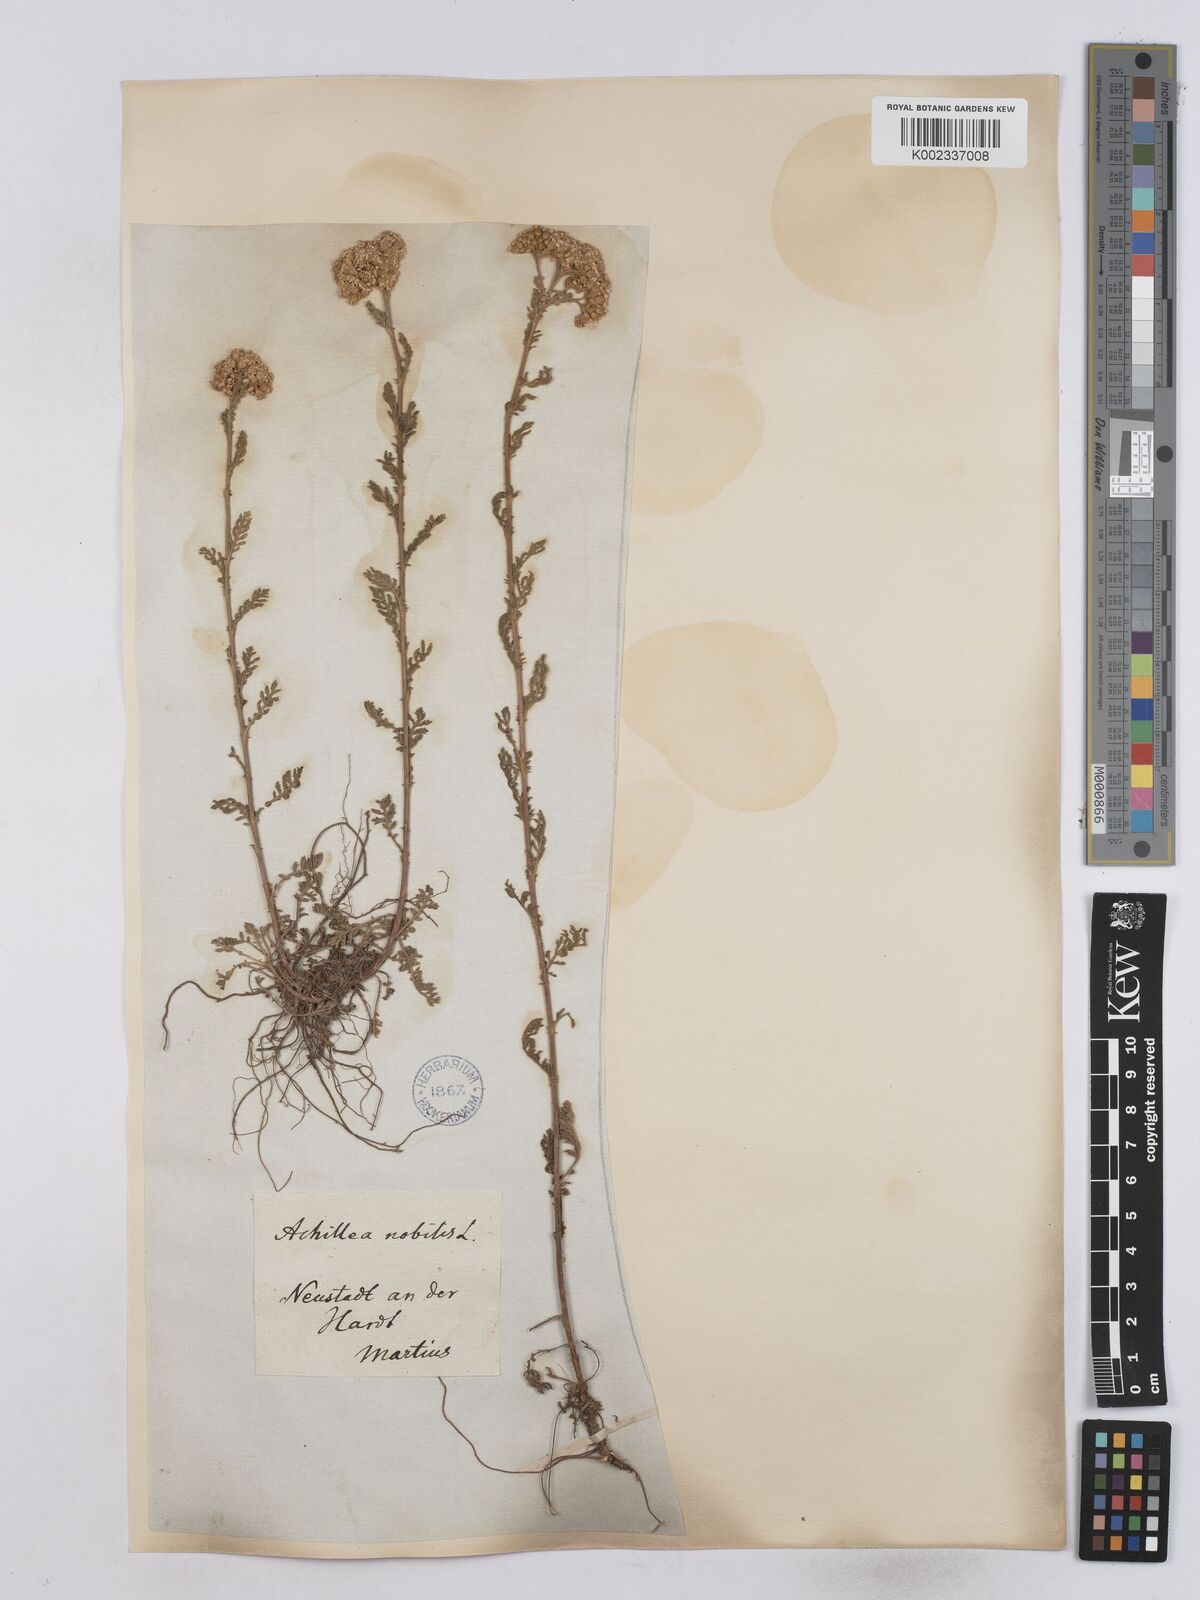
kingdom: Plantae
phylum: Tracheophyta
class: Magnoliopsida
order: Asterales
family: Asteraceae
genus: Achillea
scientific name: Achillea nobilis
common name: Noble yarrow
